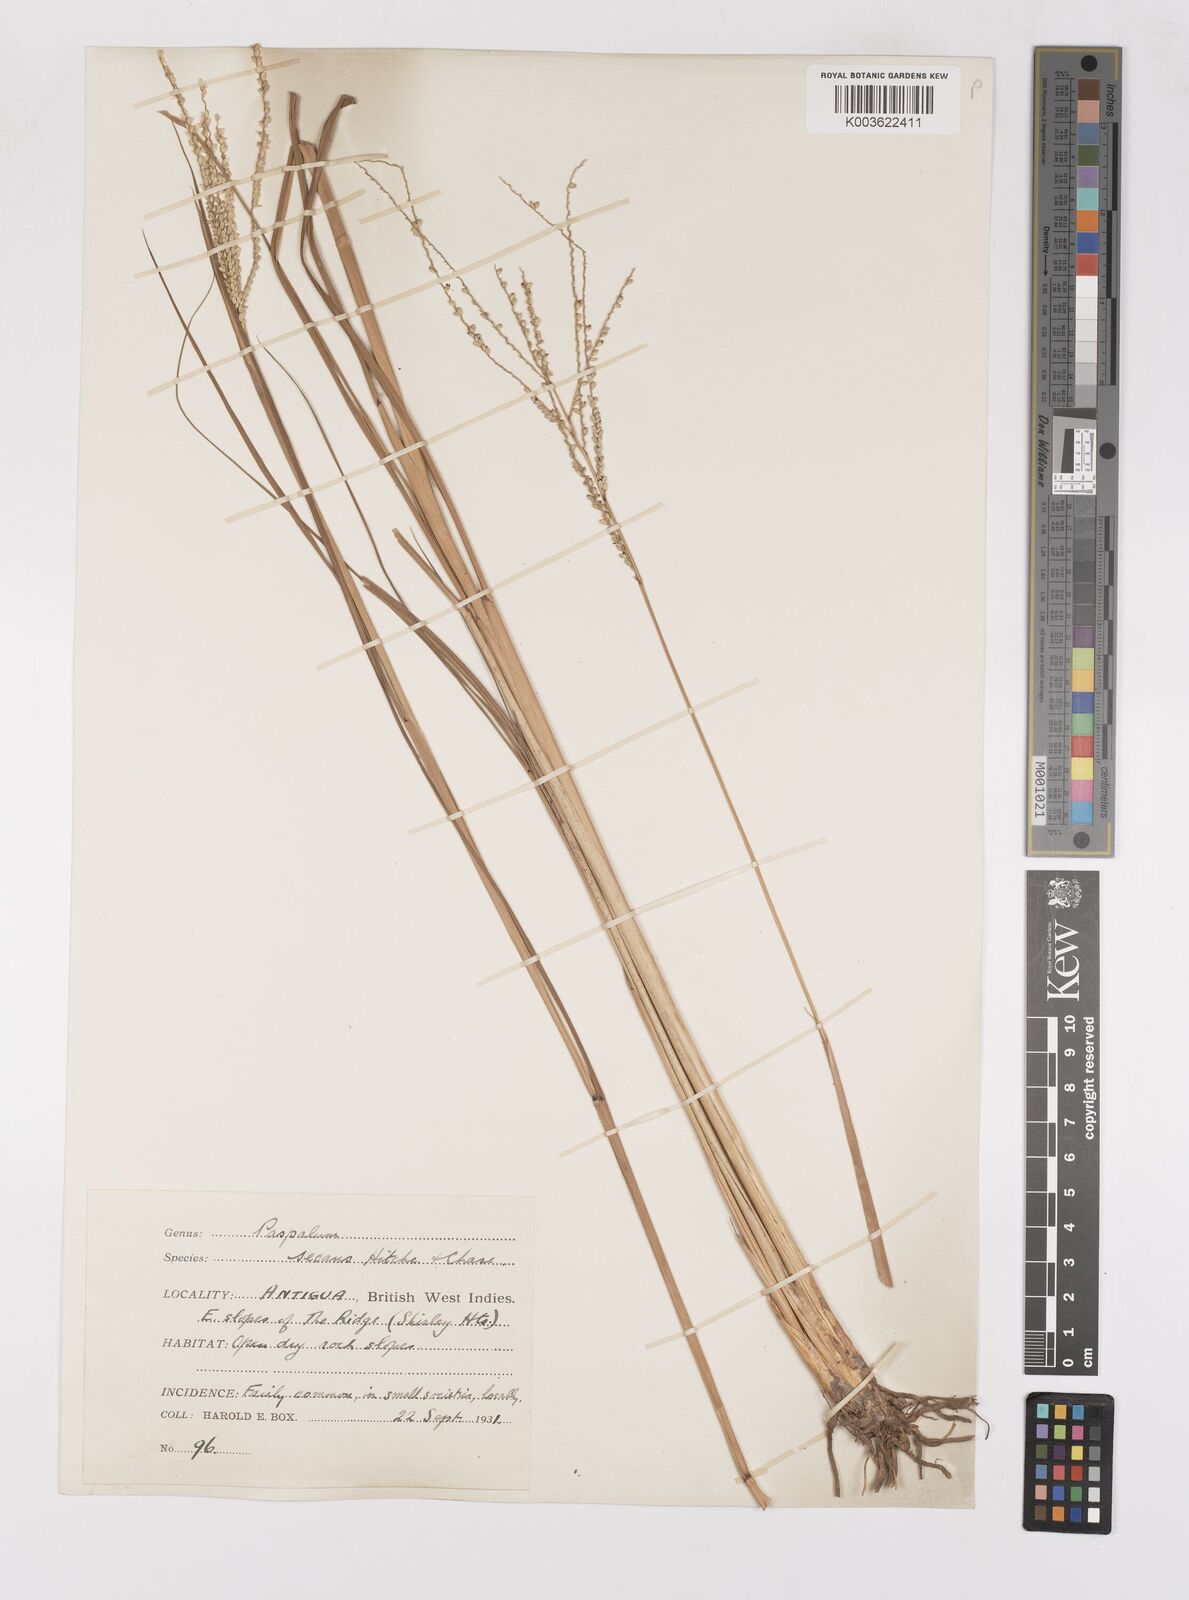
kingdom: Plantae
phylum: Tracheophyta
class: Liliopsida
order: Poales
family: Poaceae
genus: Paspalum
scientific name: Paspalum arundinaceum
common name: Thick ditch crowngrass
